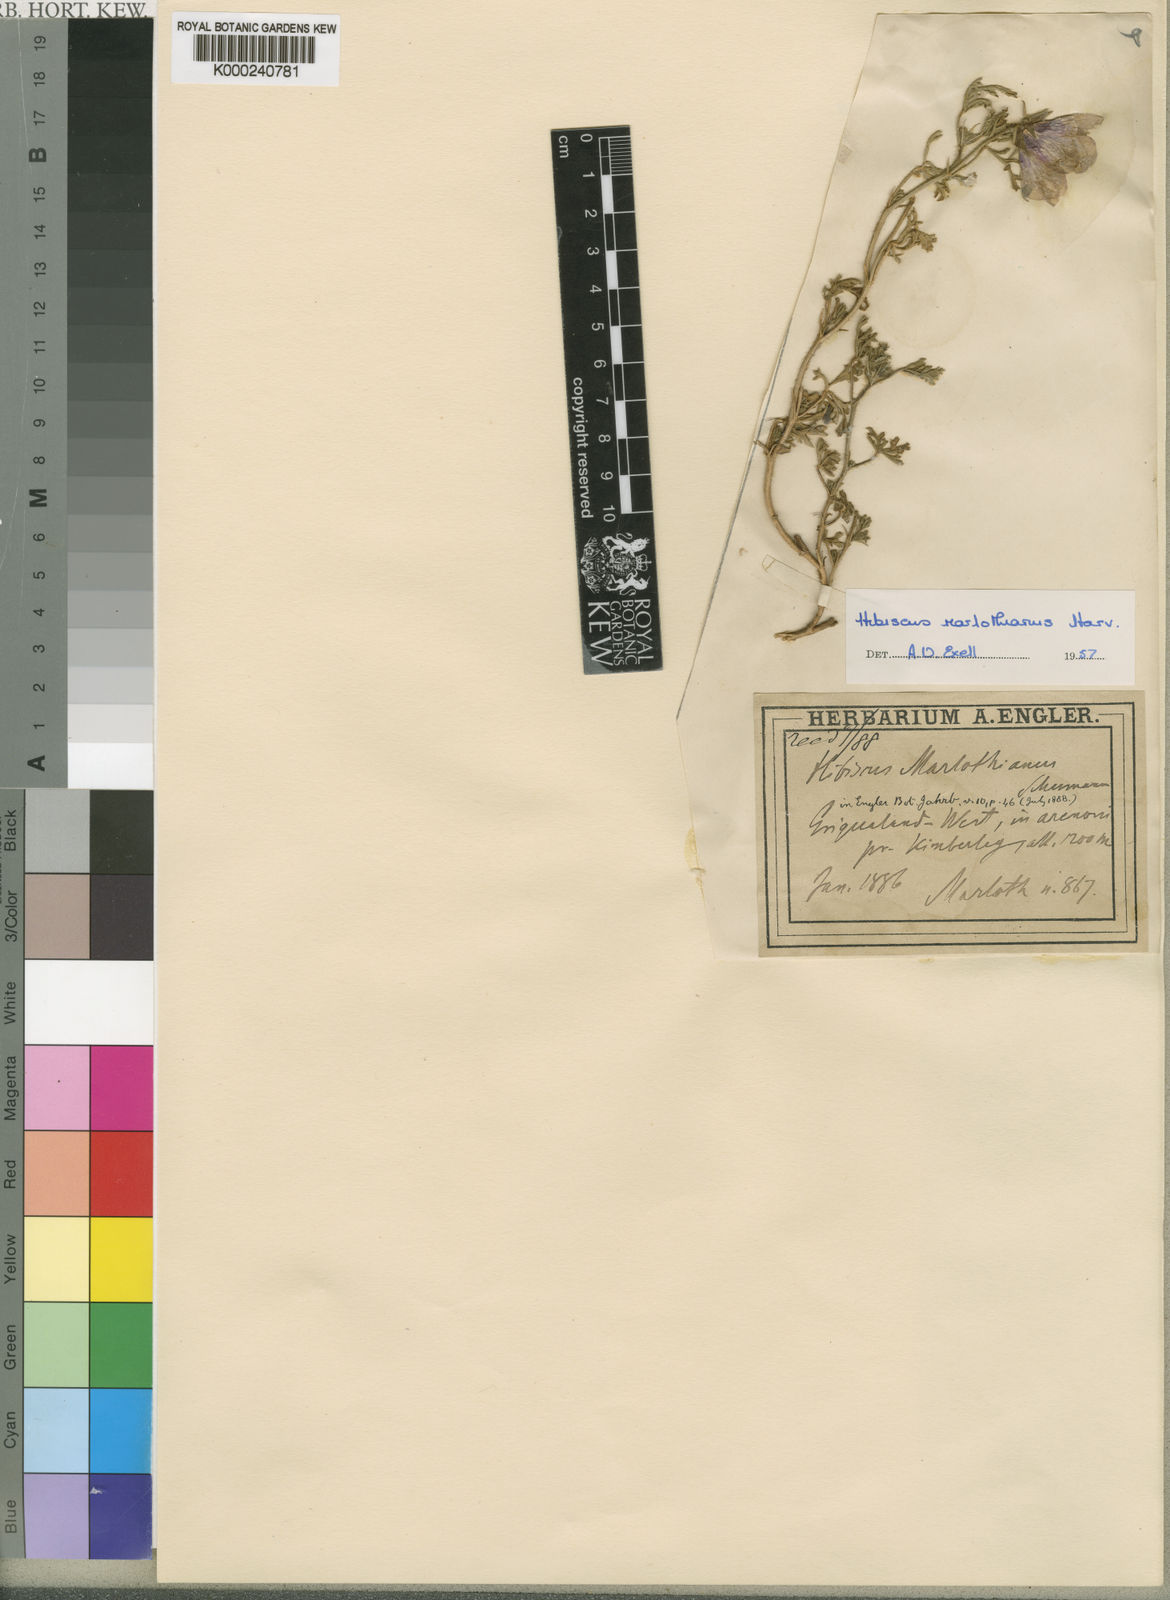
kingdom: Plantae
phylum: Tracheophyta
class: Magnoliopsida
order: Malvales
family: Malvaceae
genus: Hibiscus
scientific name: Hibiscus marlothianus
